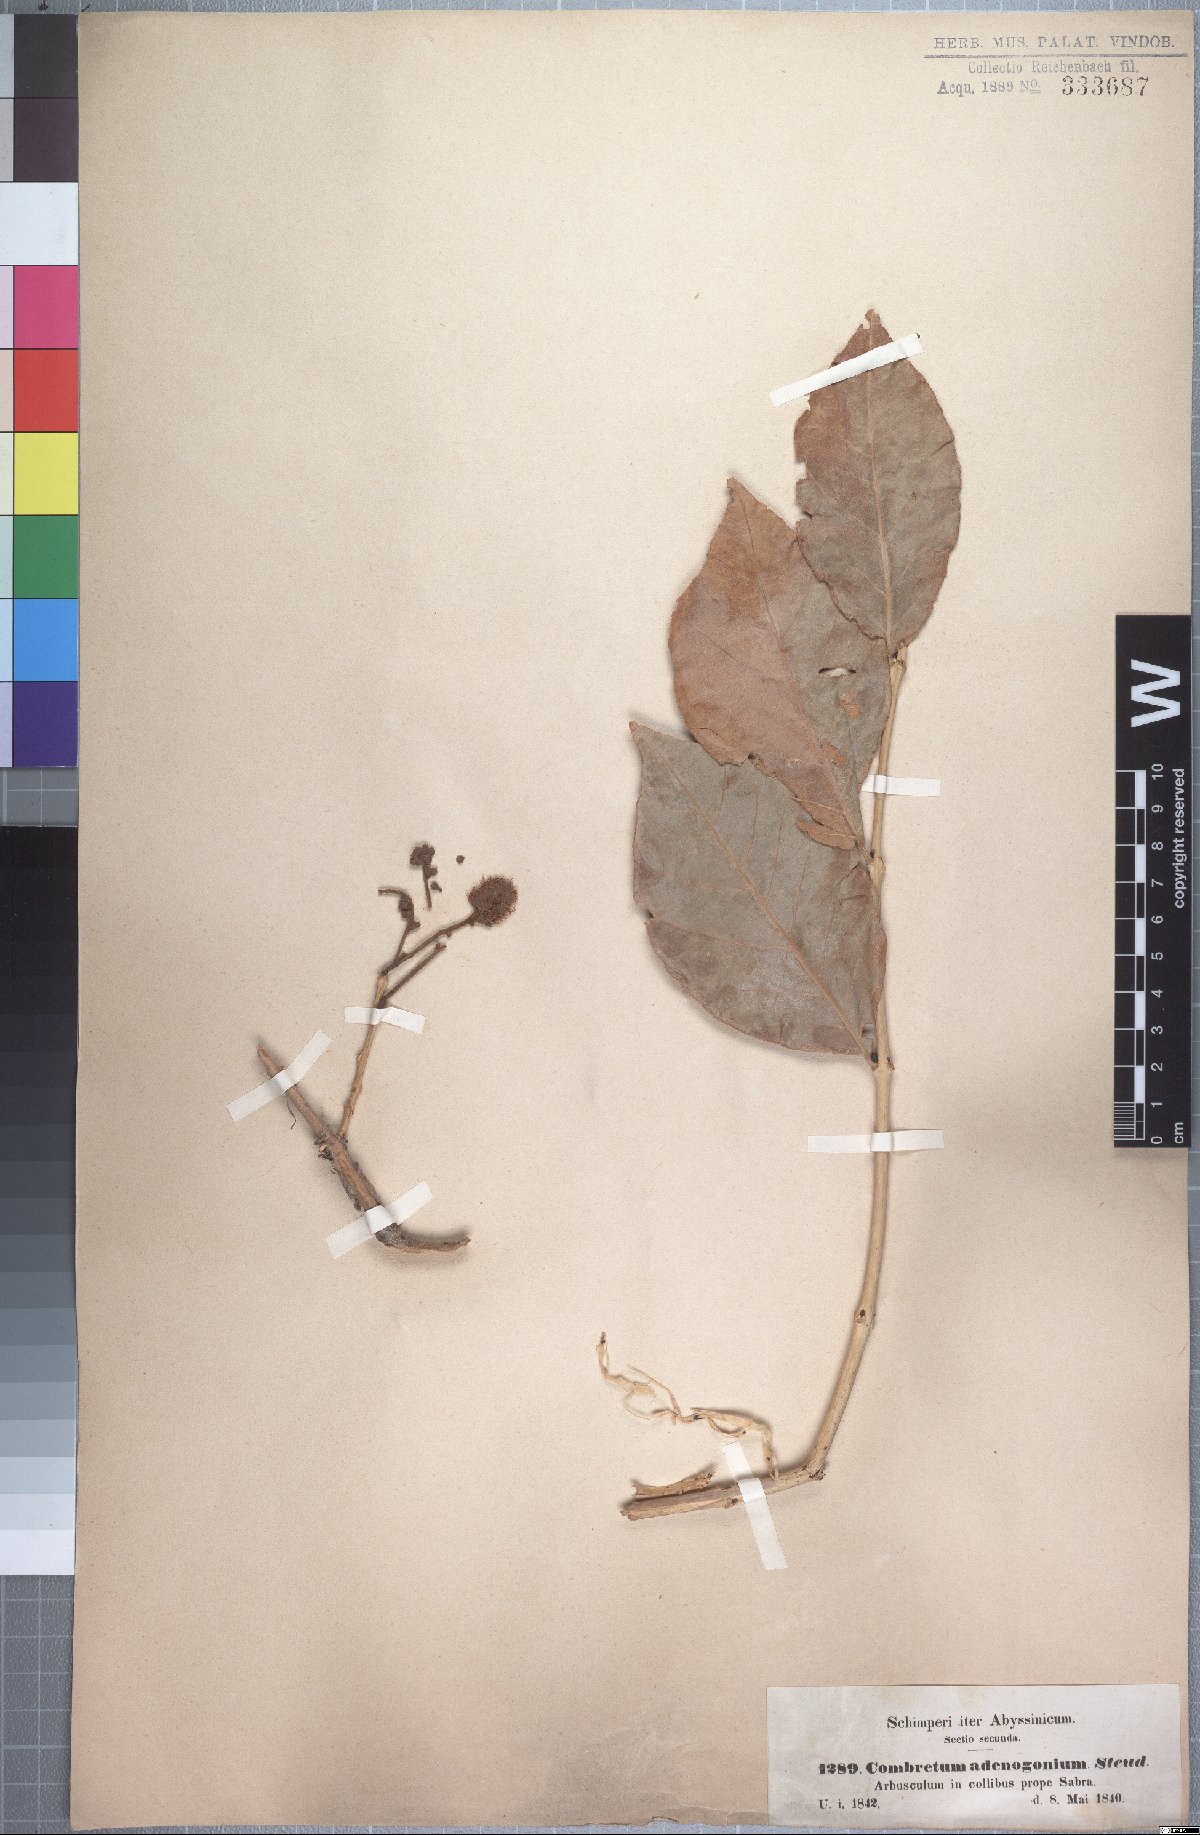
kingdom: Plantae
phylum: Tracheophyta
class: Magnoliopsida
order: Myrtales
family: Combretaceae
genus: Combretum
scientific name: Combretum adenogonium
